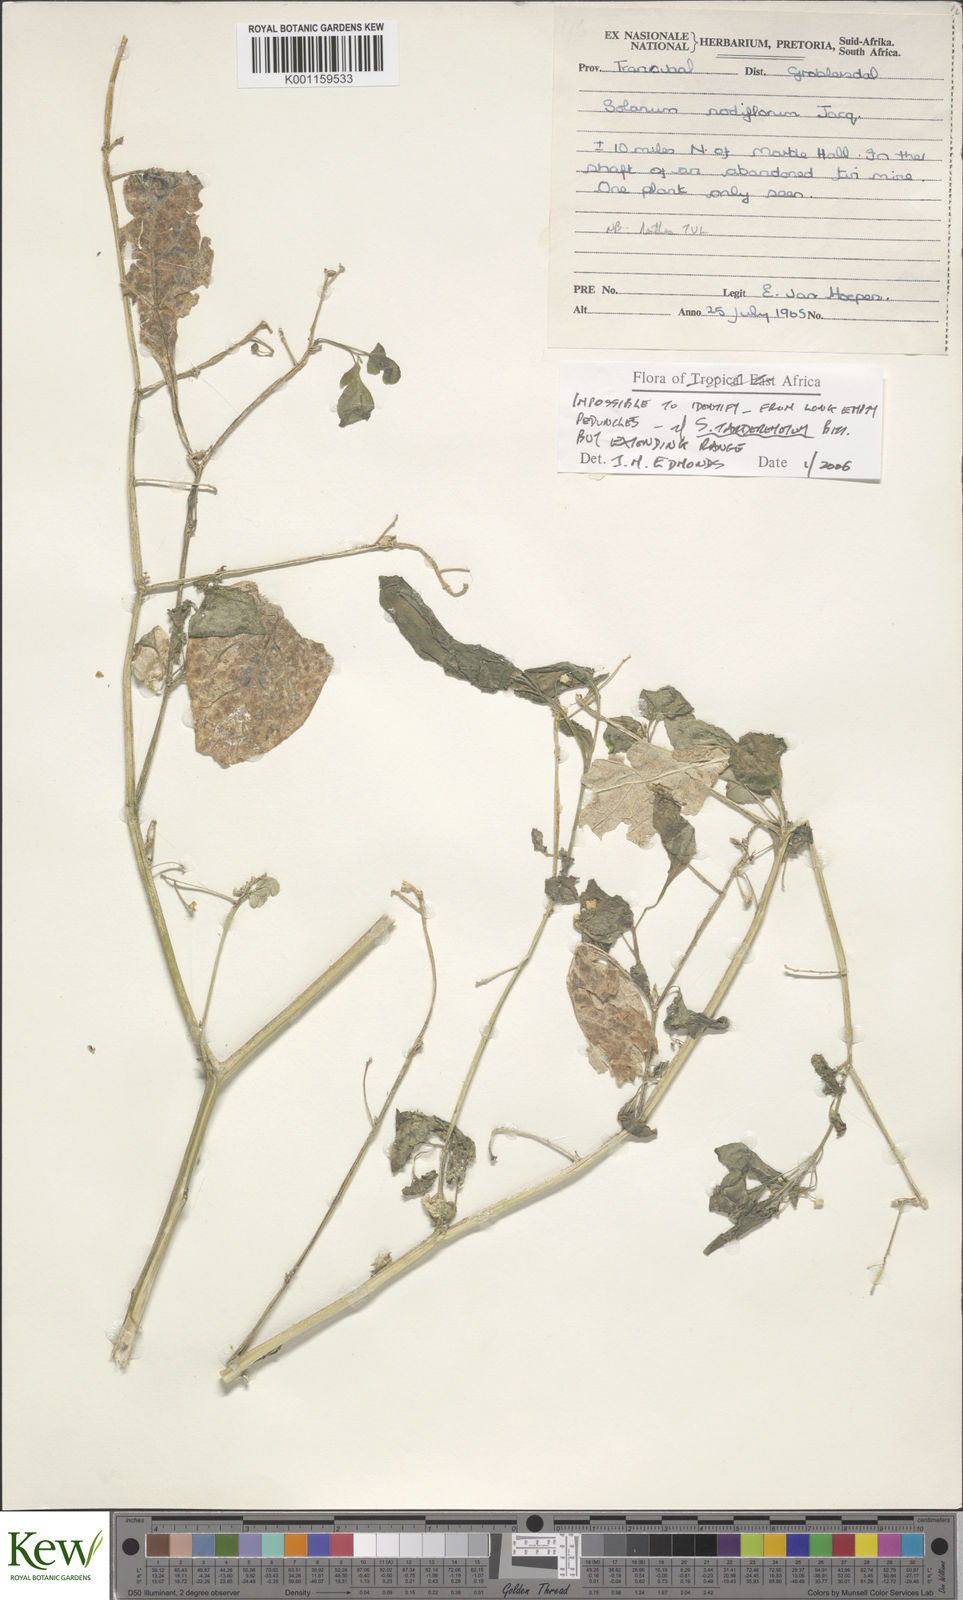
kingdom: Plantae
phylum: Tracheophyta
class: Magnoliopsida
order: Solanales
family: Solanaceae
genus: Solanum
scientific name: Solanum americanum
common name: American black nightshade
